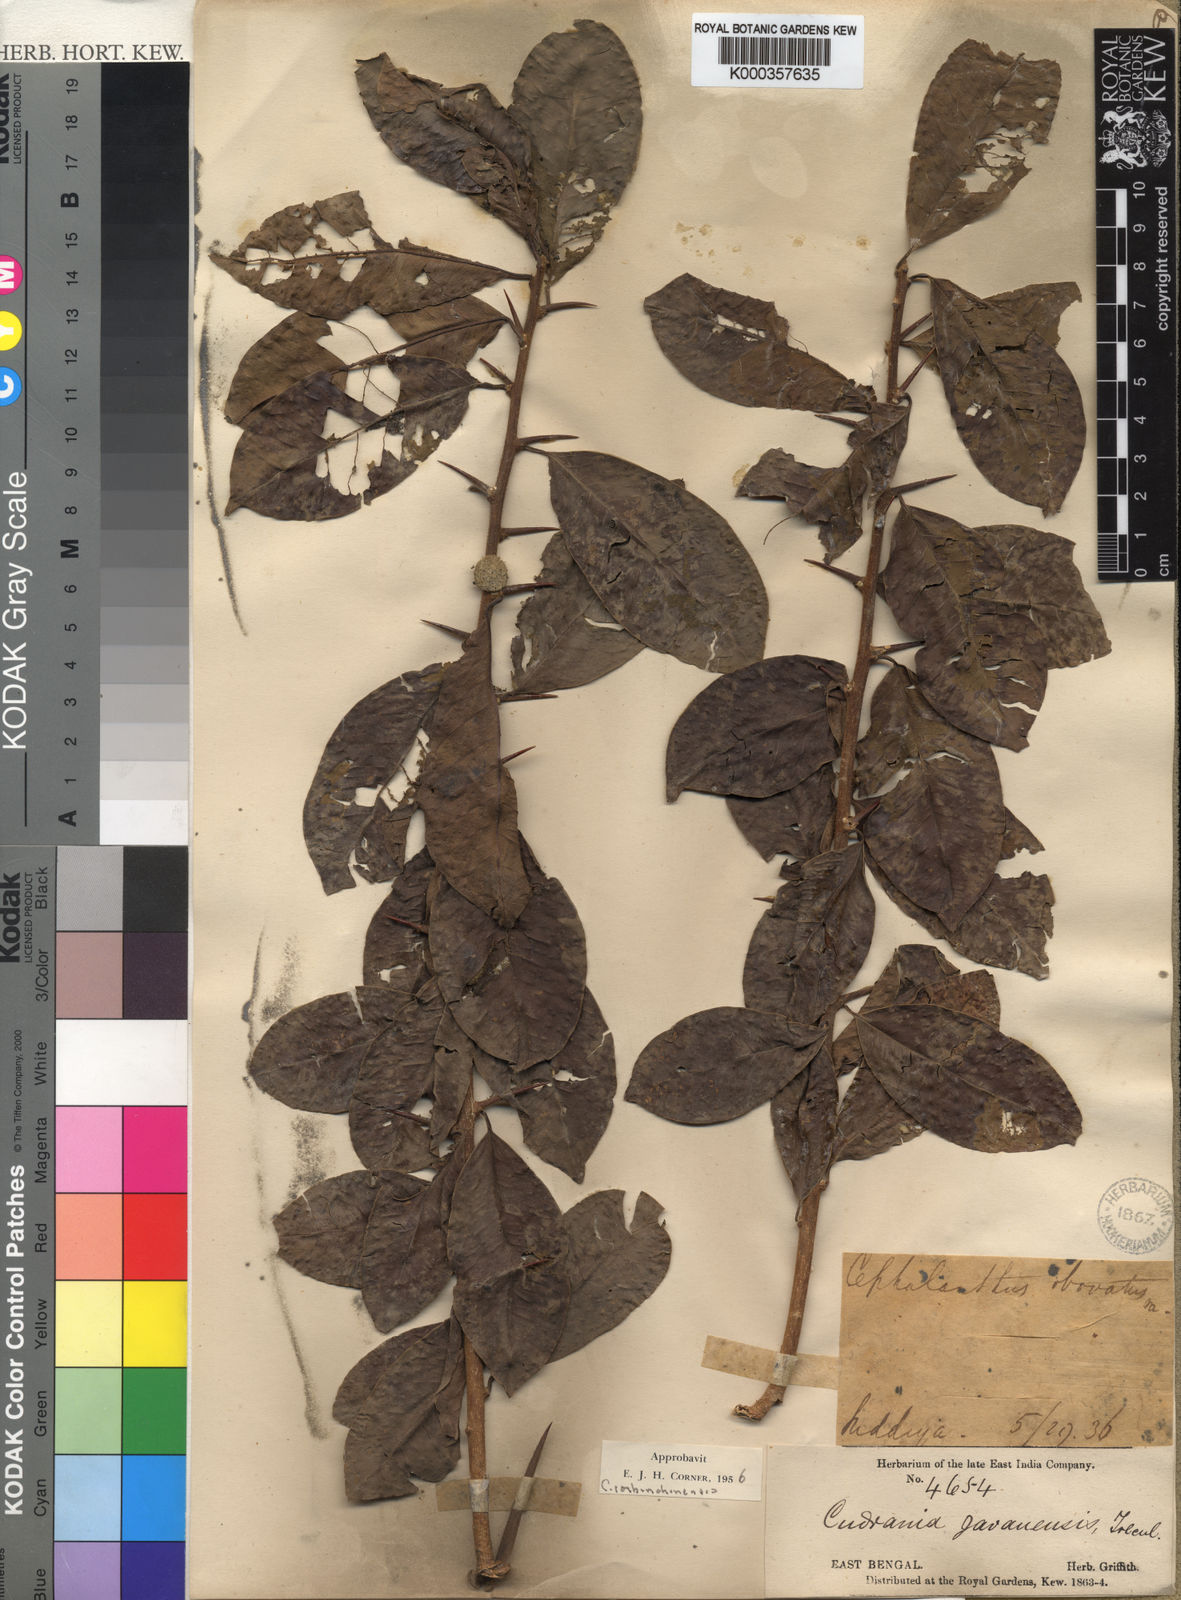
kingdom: Plantae
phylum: Tracheophyta
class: Magnoliopsida
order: Rosales
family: Moraceae
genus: Maclura
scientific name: Maclura
